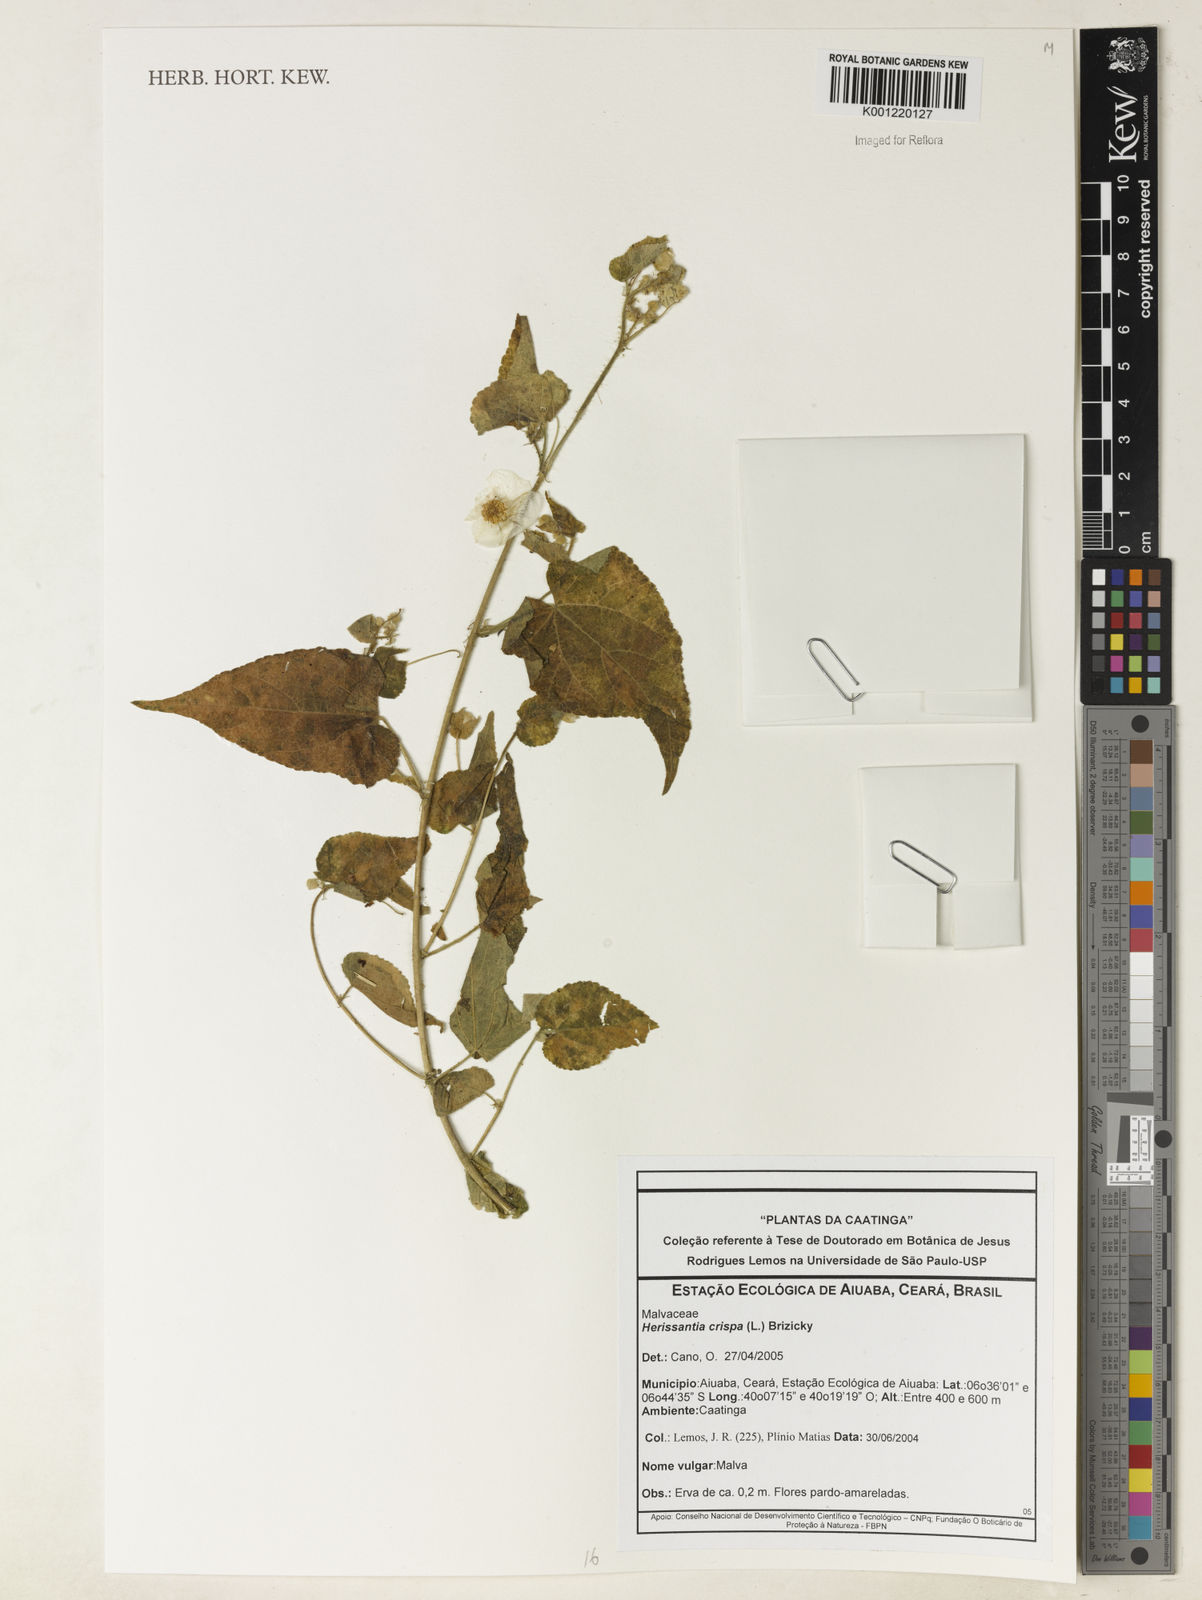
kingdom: Plantae
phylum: Tracheophyta
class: Magnoliopsida
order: Malvales
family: Malvaceae
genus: Herissantia
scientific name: Herissantia crispa
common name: Bladdermallow
